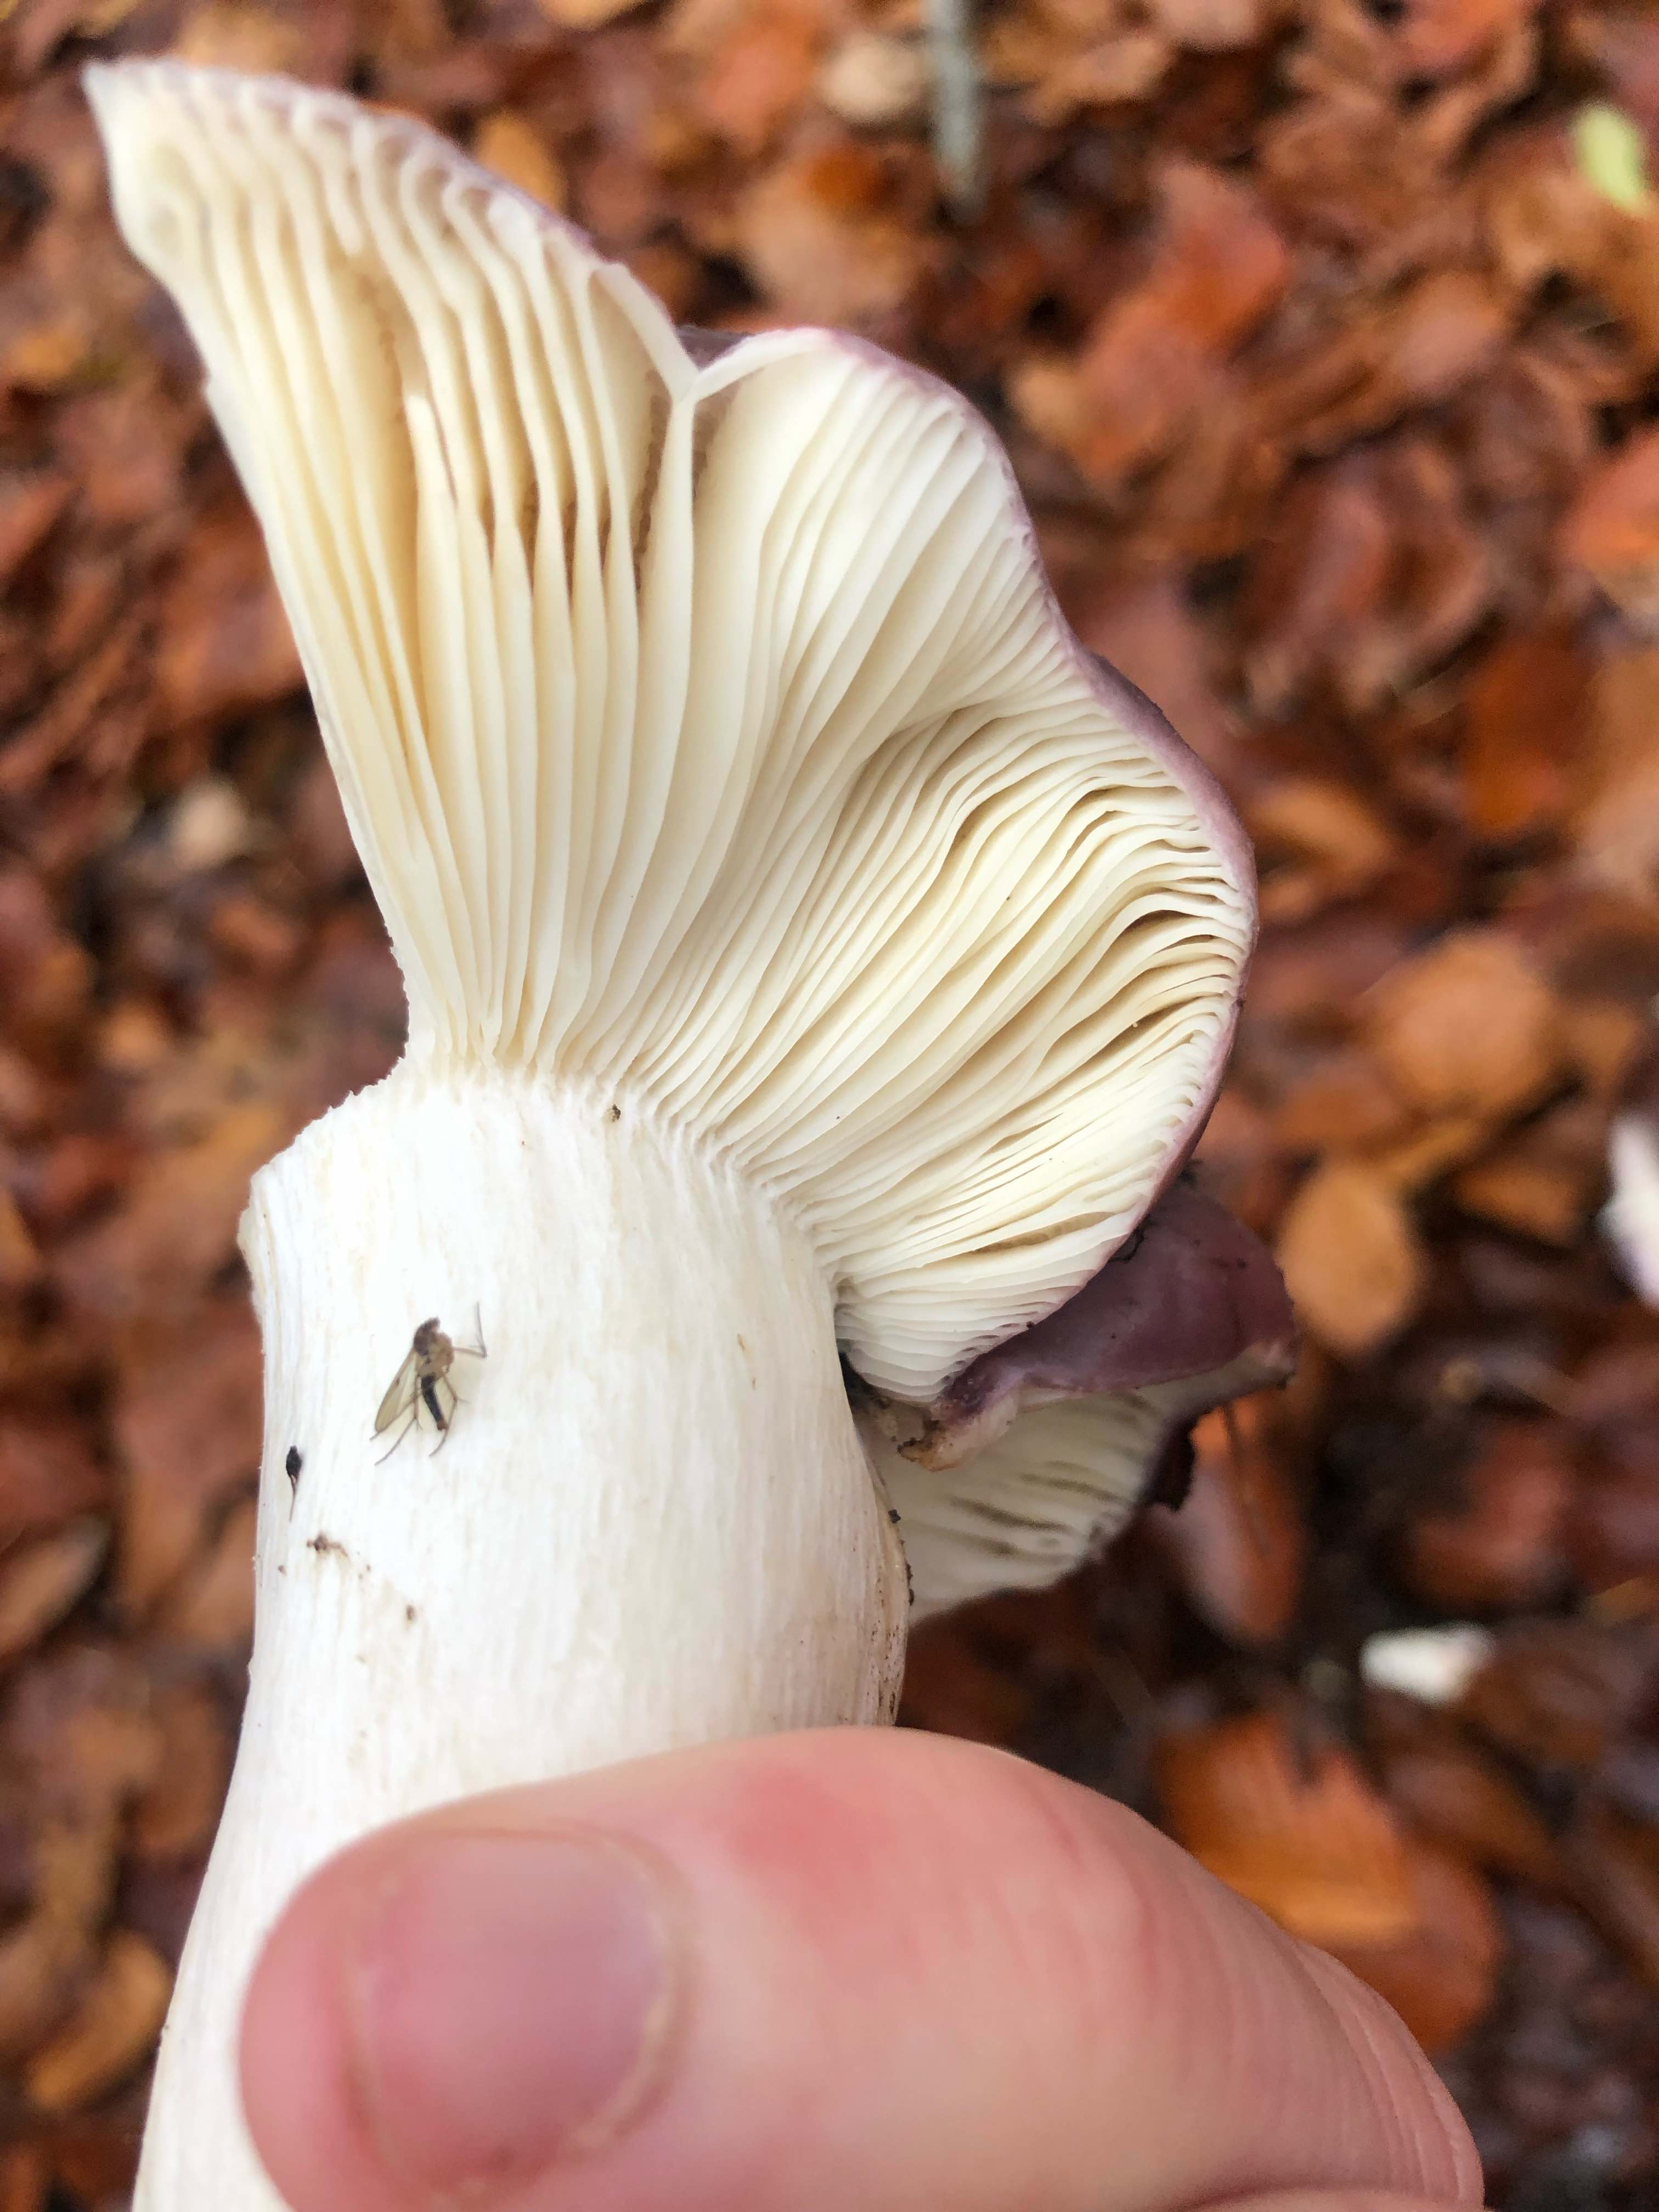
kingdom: Fungi
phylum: Basidiomycota
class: Agaricomycetes
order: Russulales
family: Russulaceae
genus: Russula
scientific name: Russula
